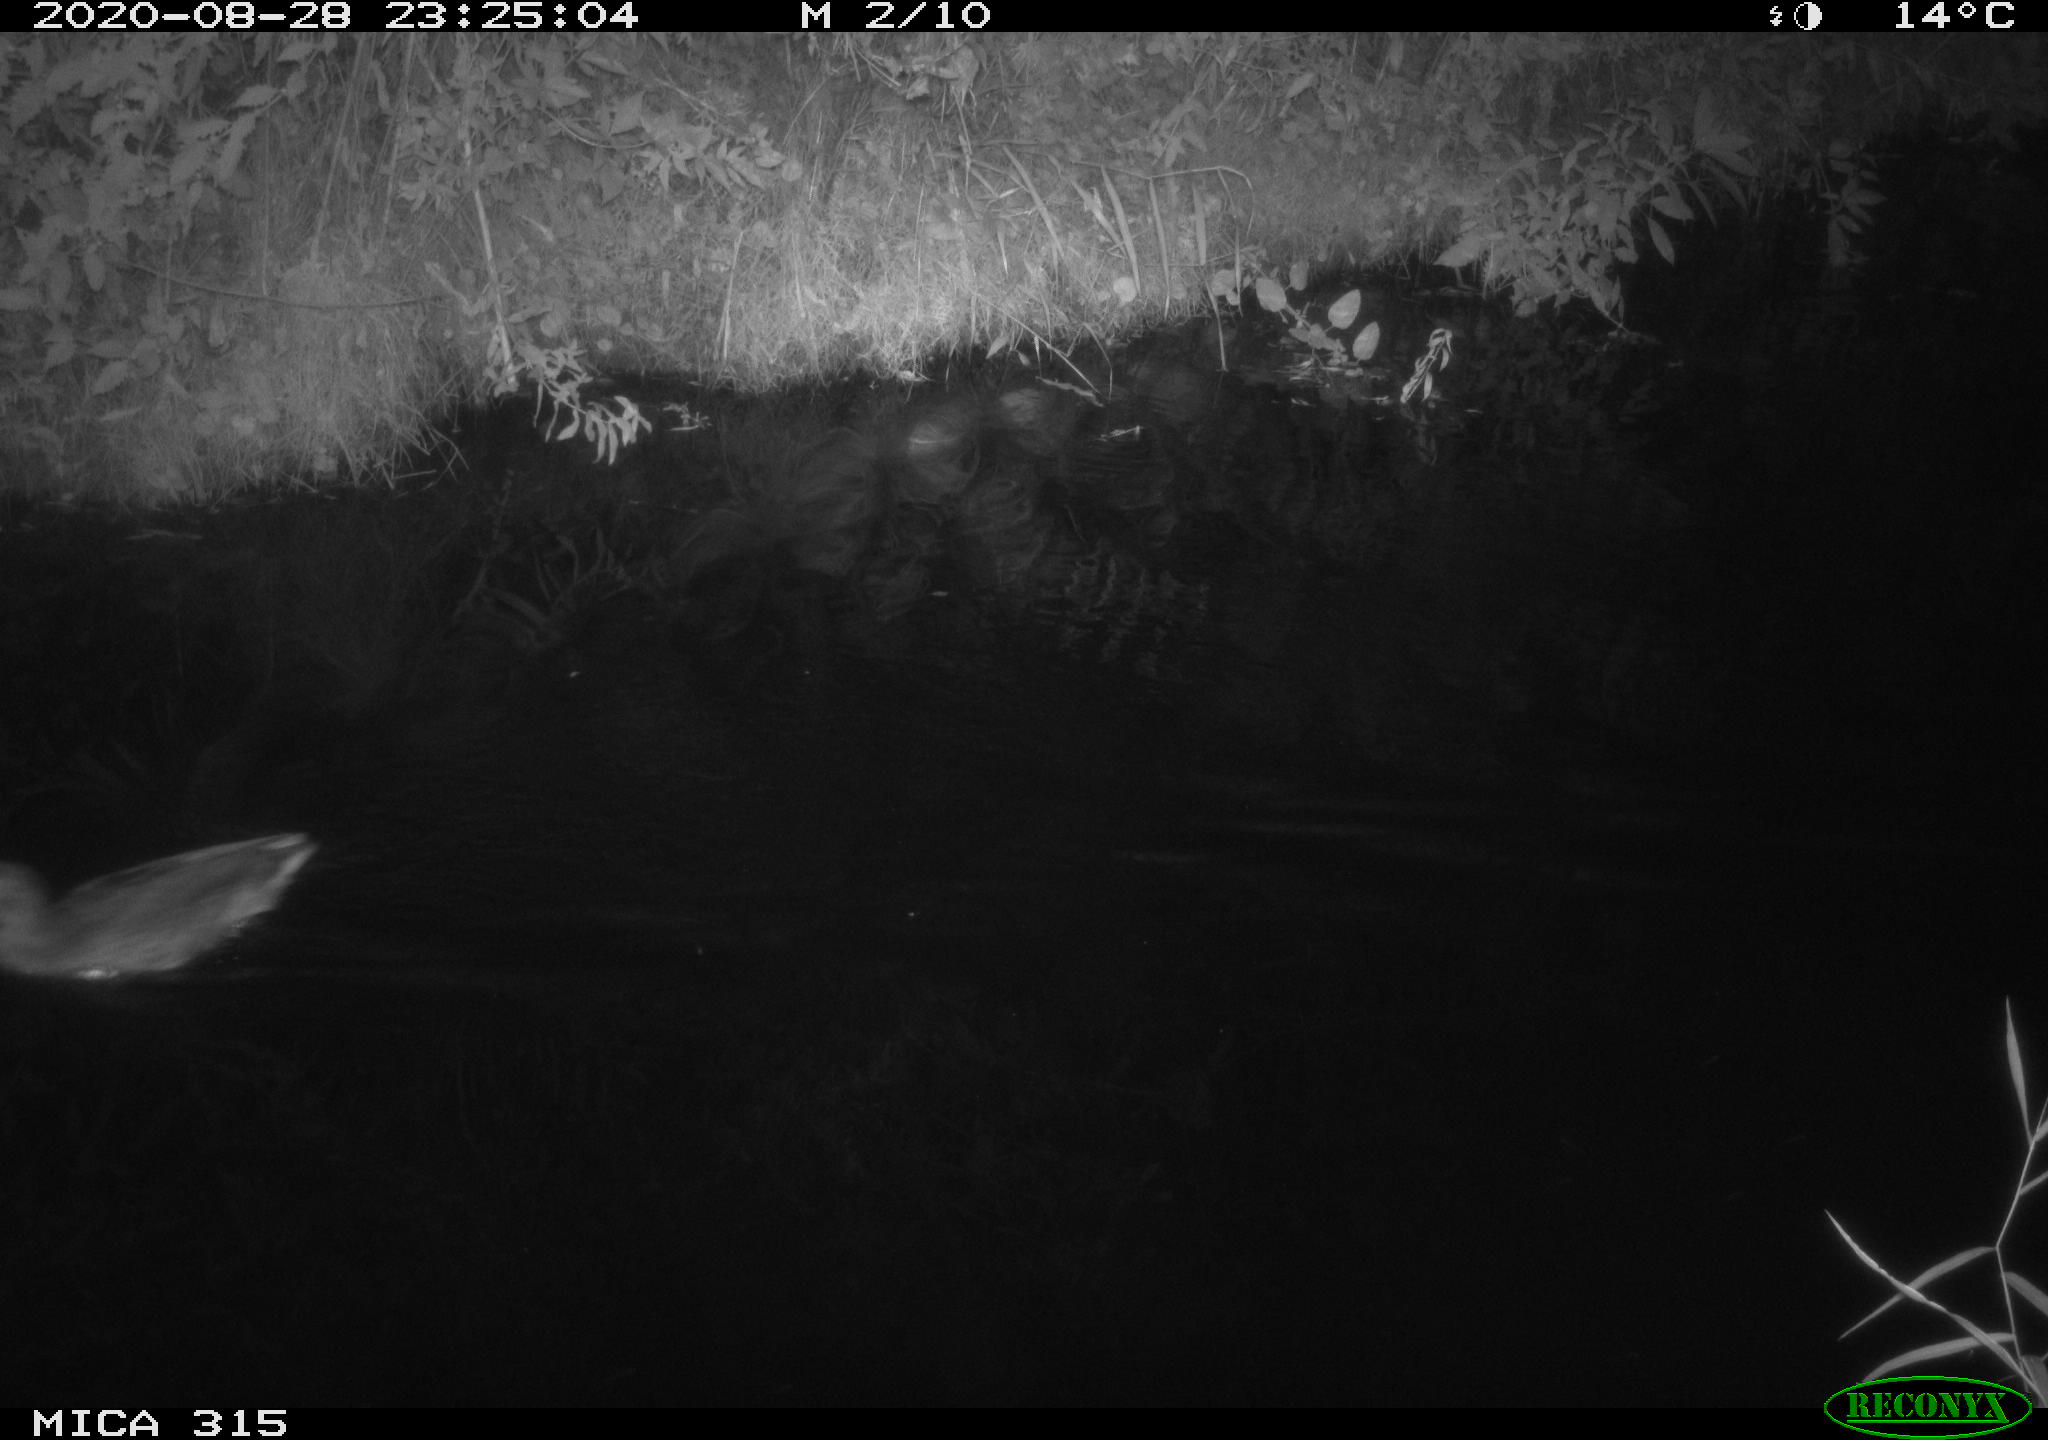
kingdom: Animalia
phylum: Chordata
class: Aves
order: Anseriformes
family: Anatidae
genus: Anas
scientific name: Anas platyrhynchos
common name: Mallard
